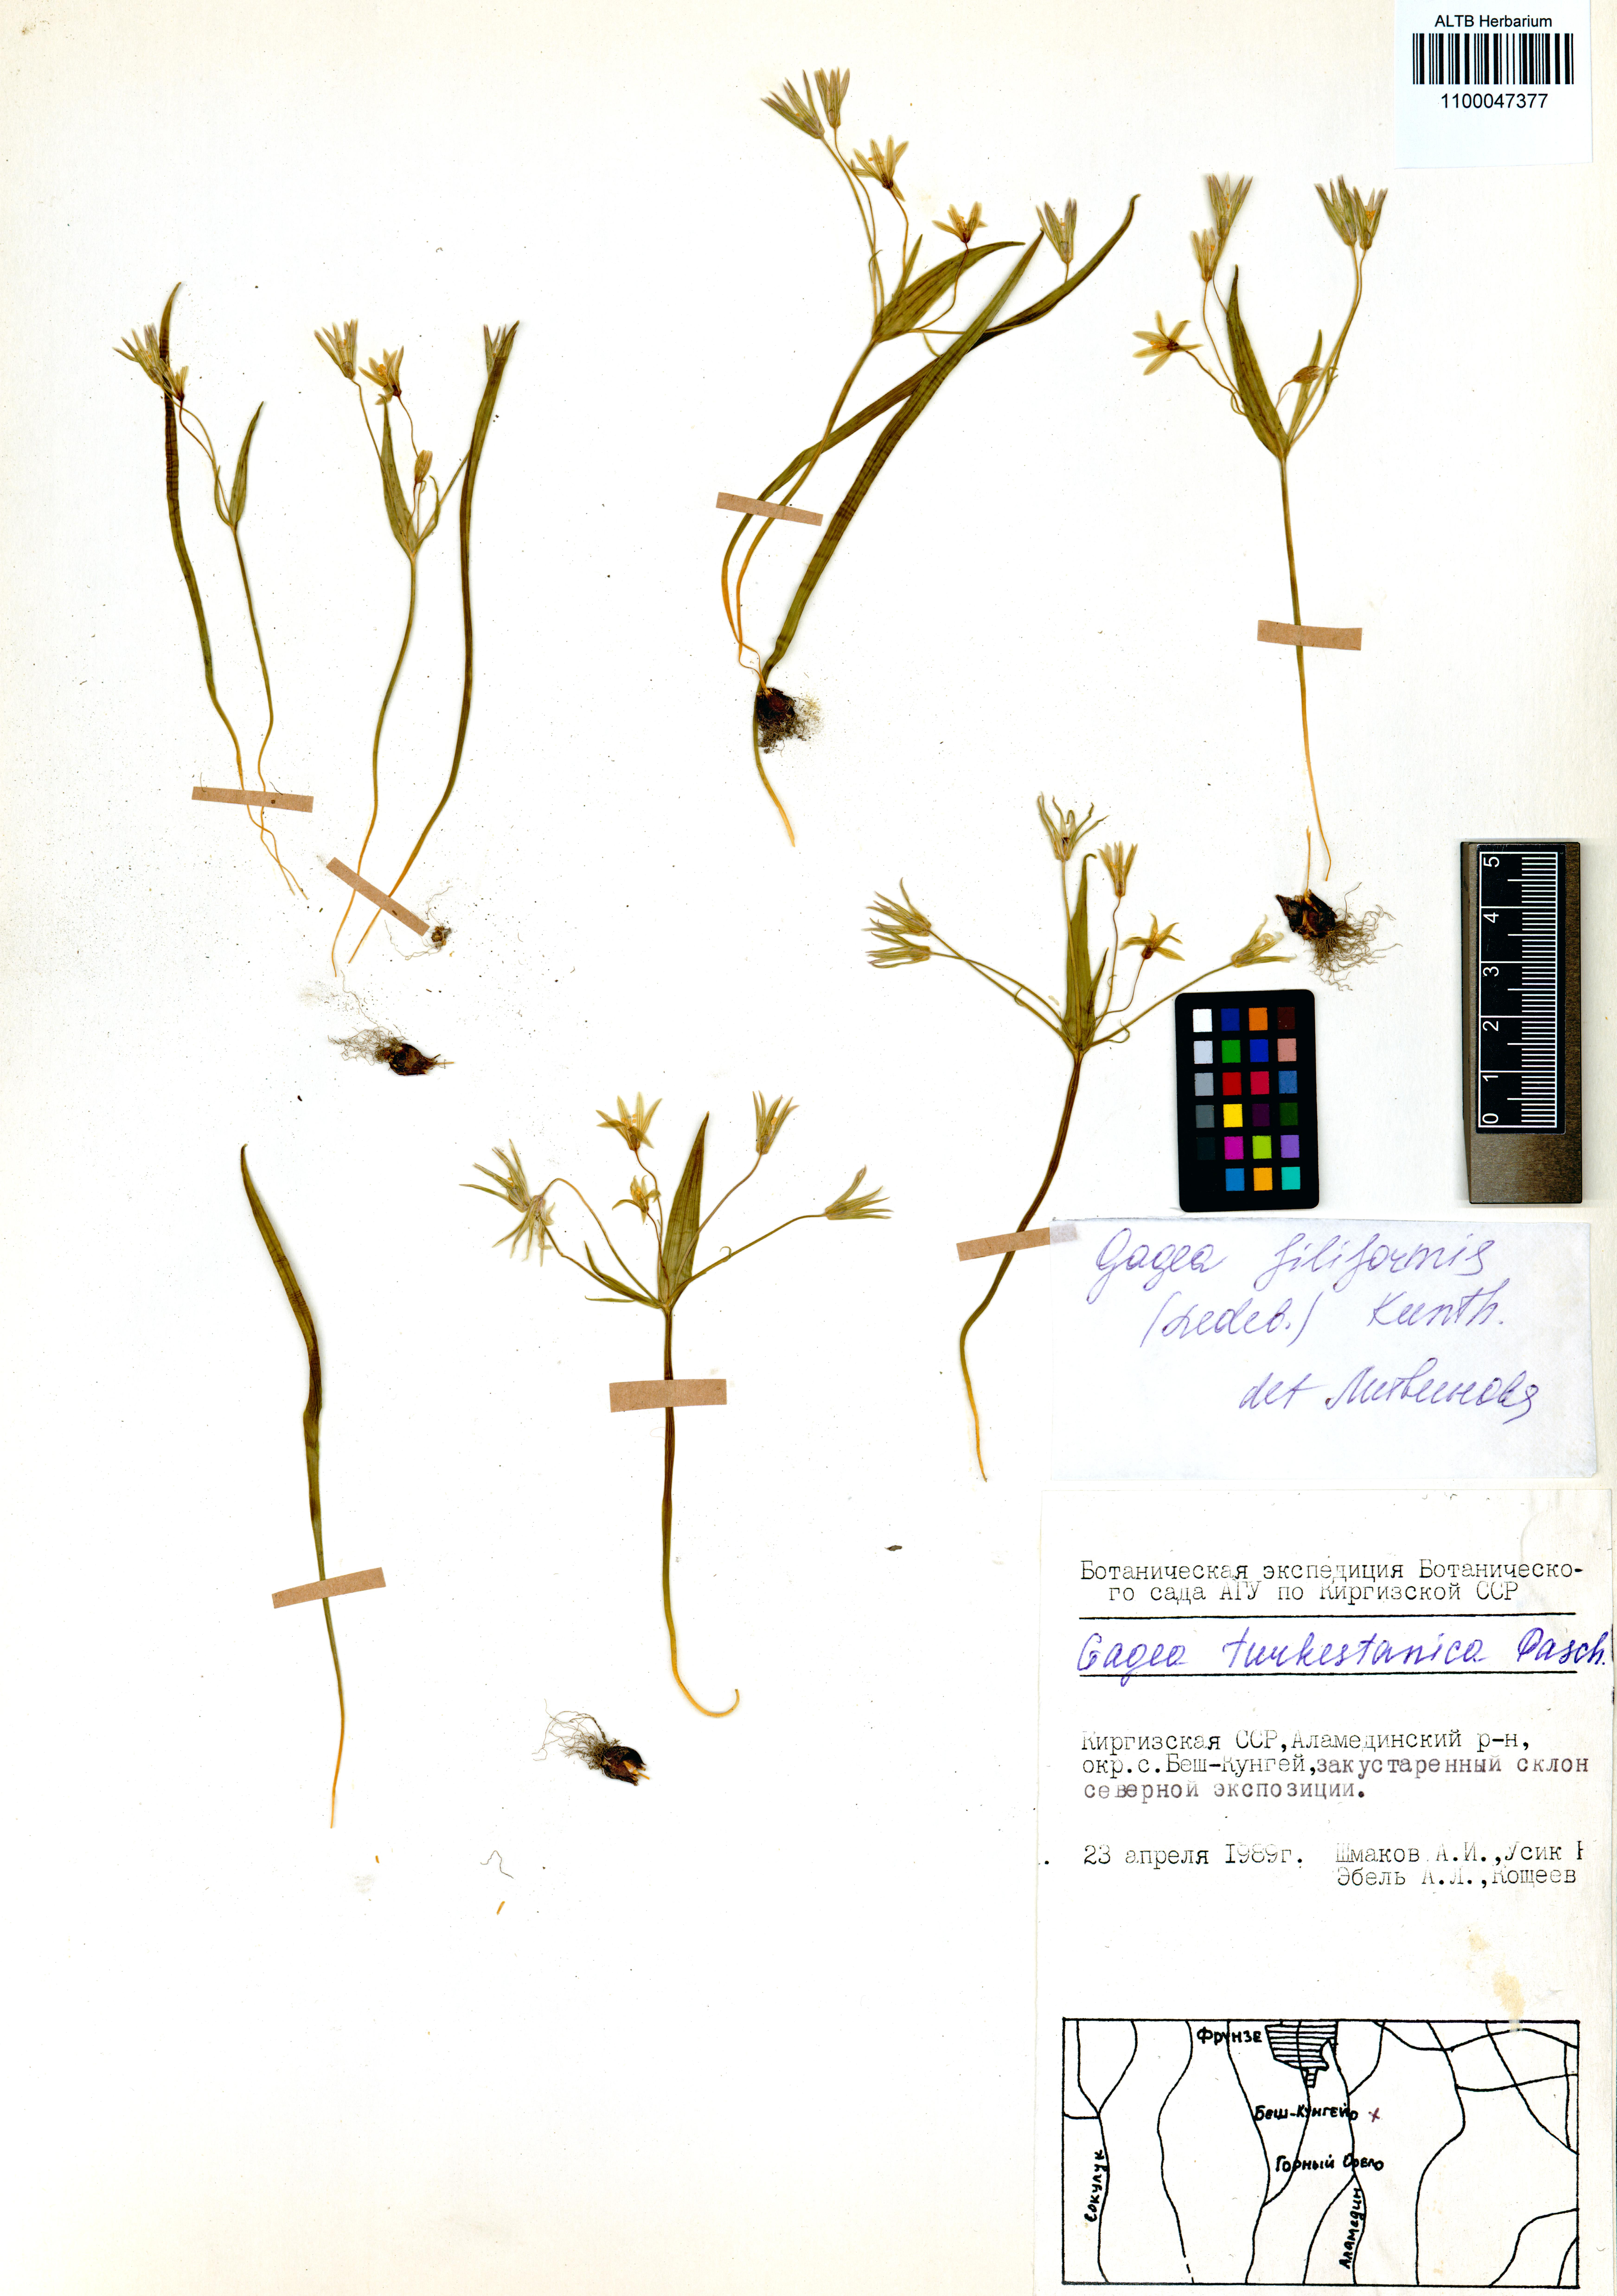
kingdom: Plantae
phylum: Tracheophyta
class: Liliopsida
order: Liliales
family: Liliaceae
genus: Gagea
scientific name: Gagea filiformis
